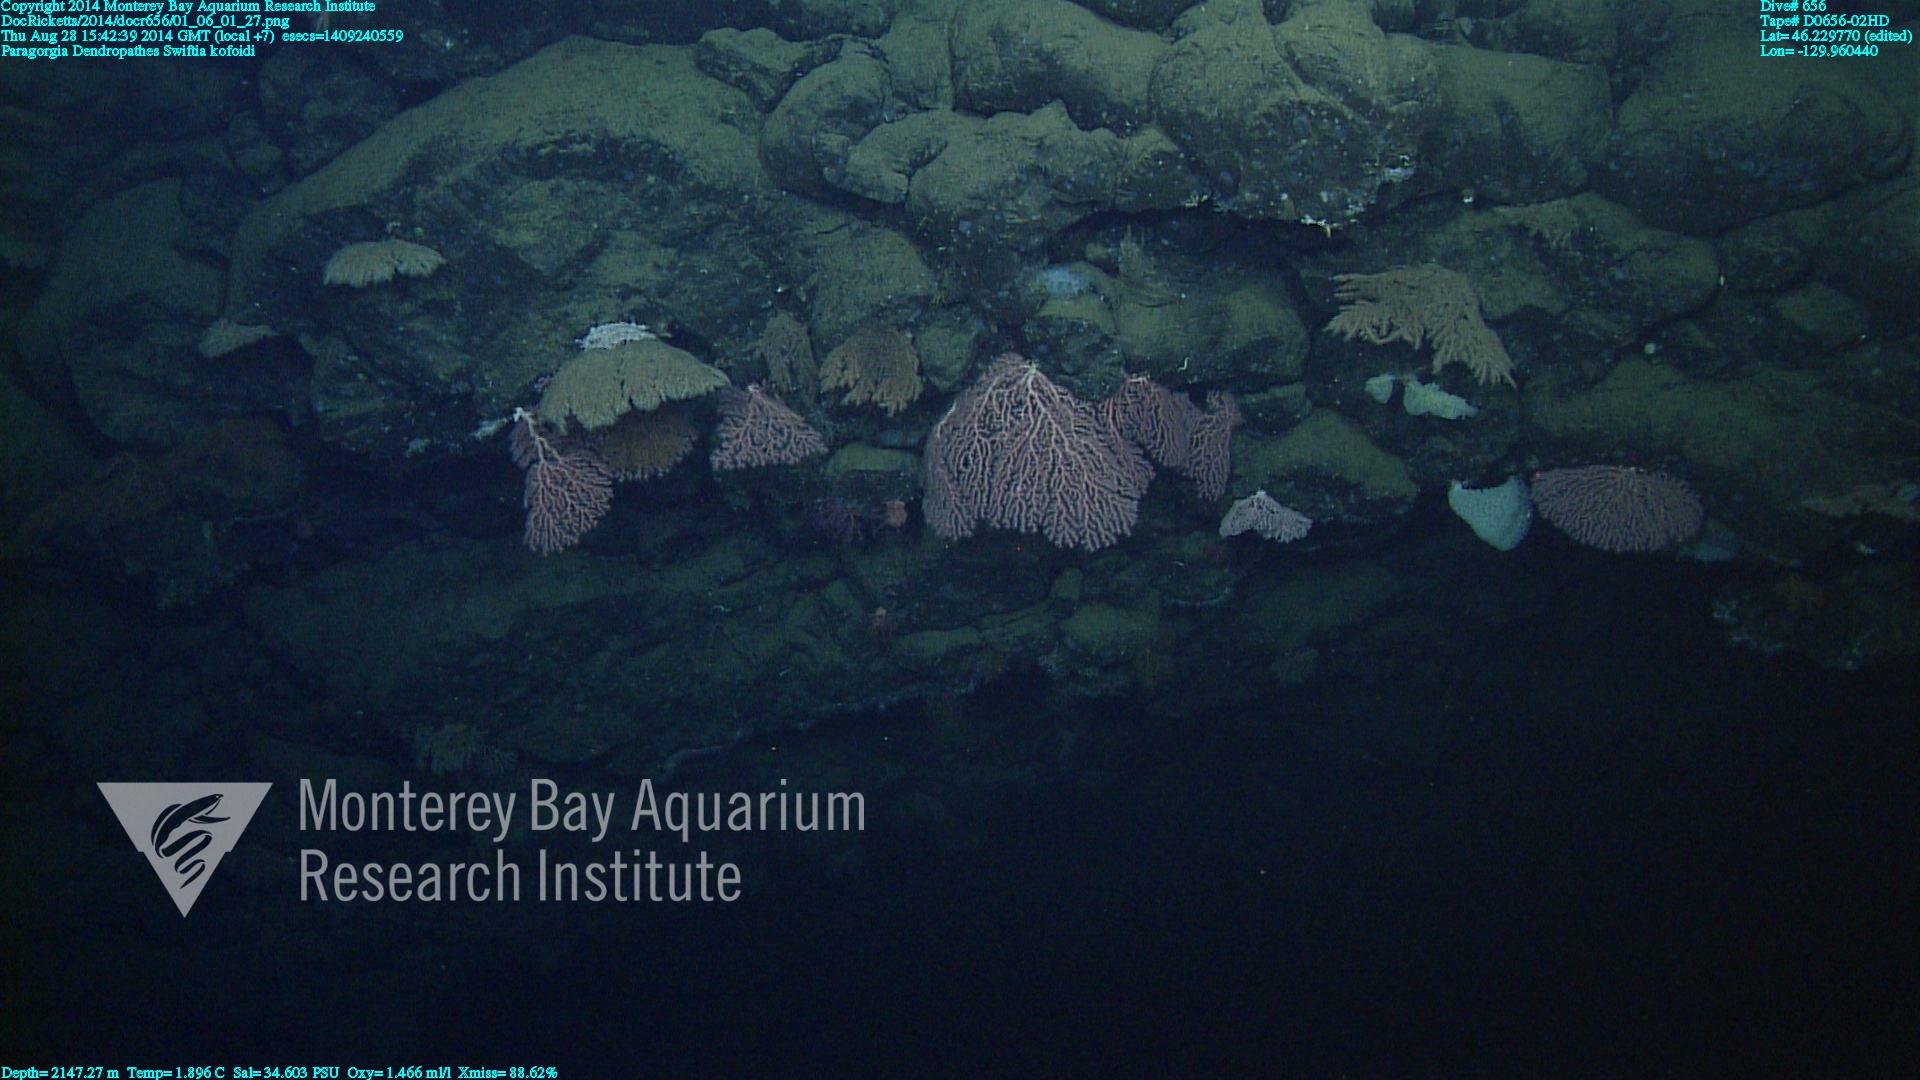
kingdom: Animalia
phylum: Cnidaria
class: Anthozoa
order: Scleralcyonacea
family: Coralliidae
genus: Paragorgia
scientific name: Paragorgia
